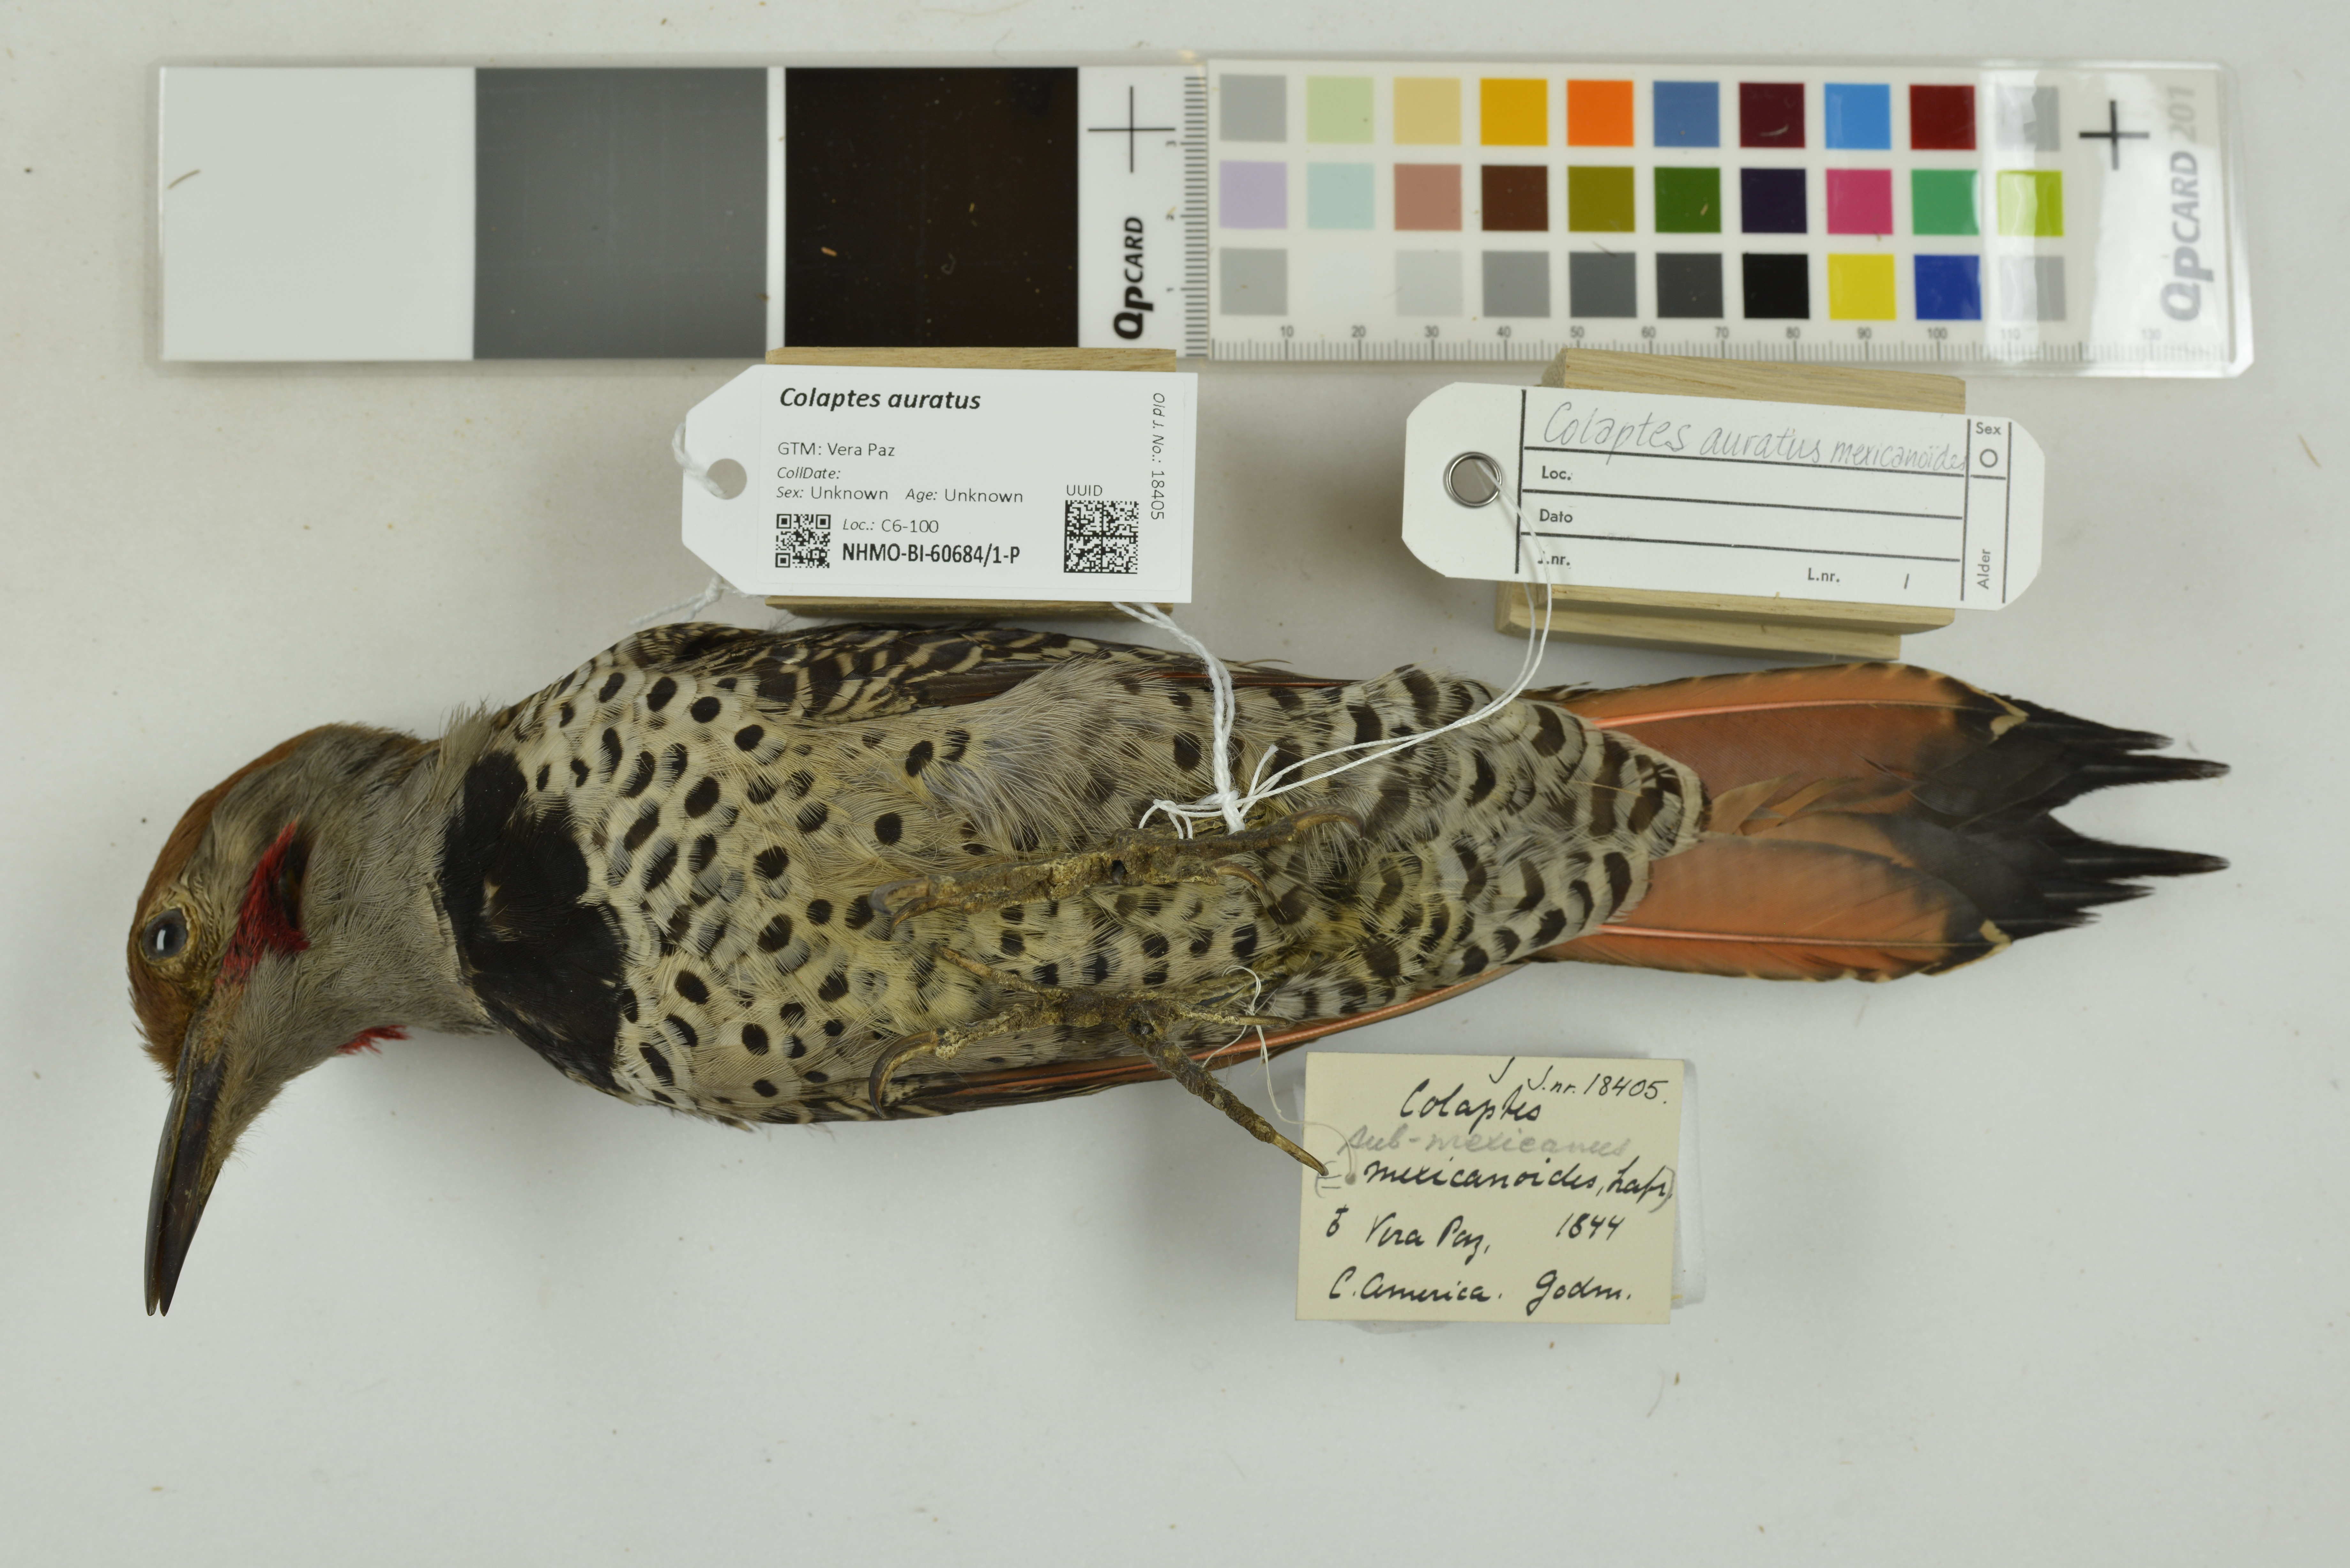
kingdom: Animalia
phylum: Chordata
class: Aves
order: Piciformes
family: Picidae
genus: Colaptes
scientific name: Colaptes auratus
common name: Northern flicker
